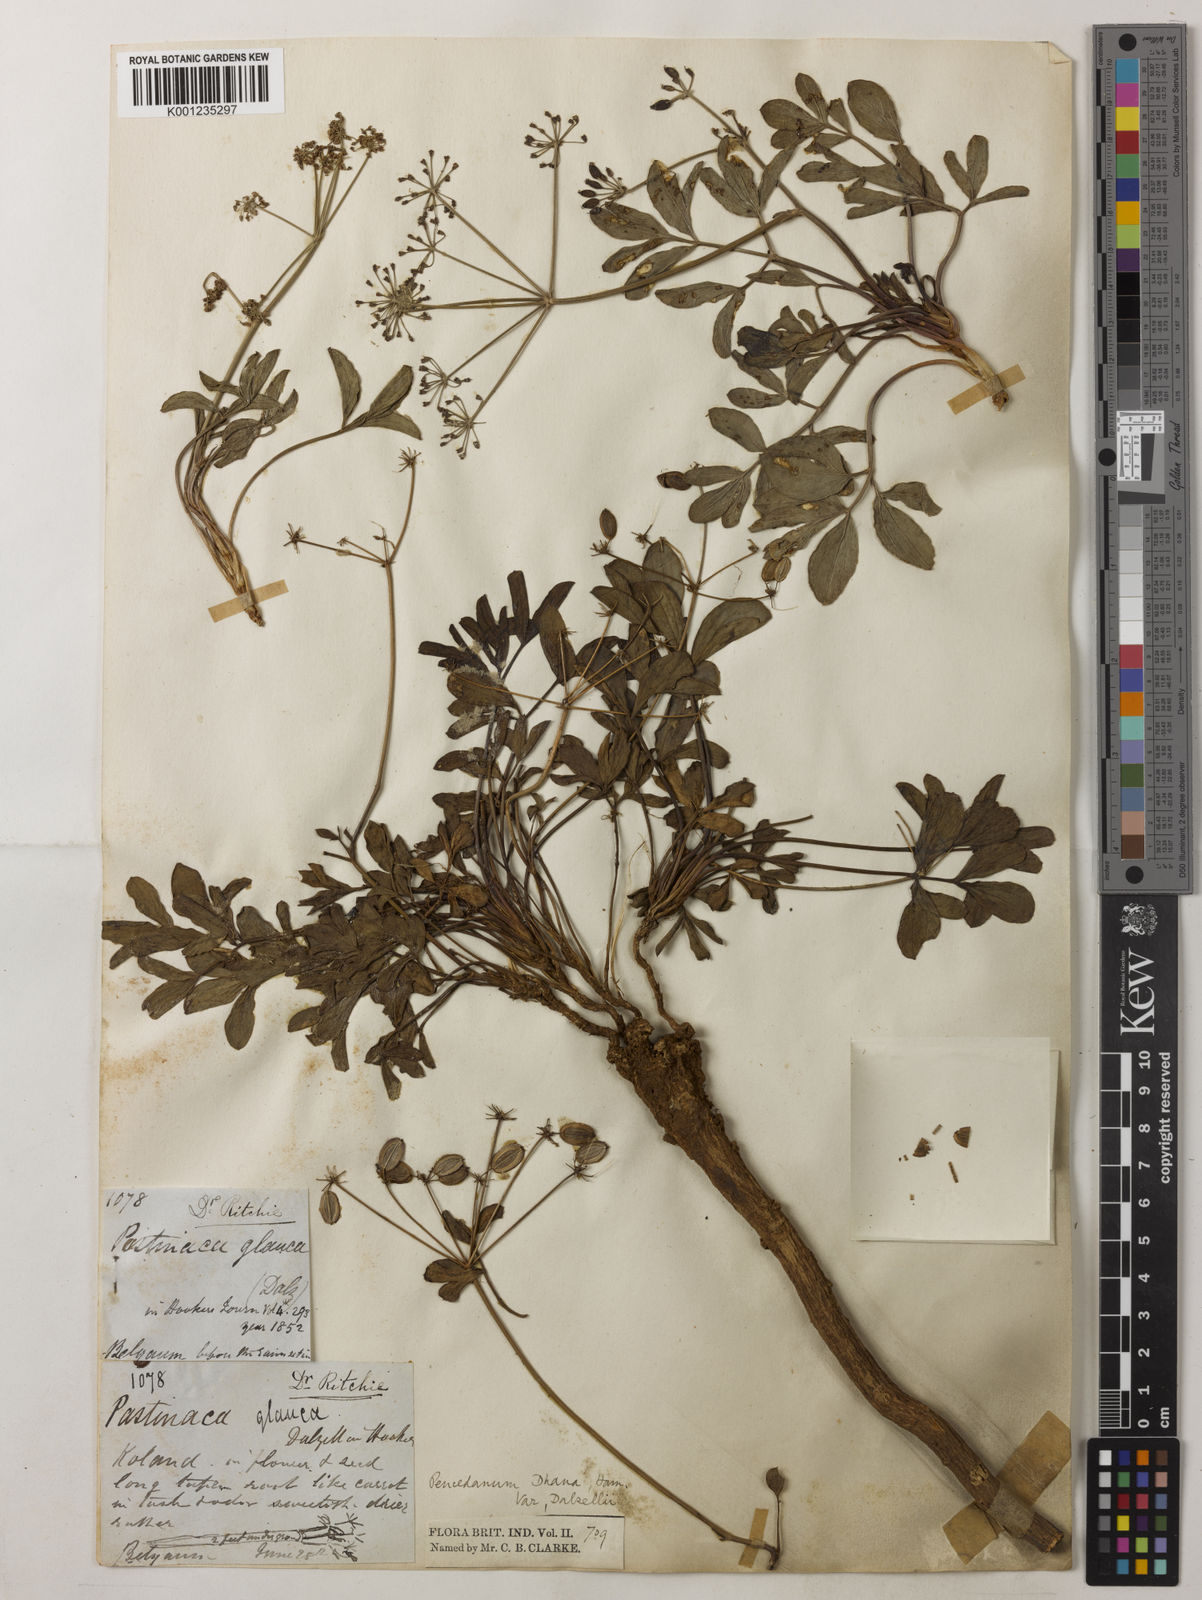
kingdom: Plantae
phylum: Tracheophyta
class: Magnoliopsida
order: Apiales
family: Apiaceae
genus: Peucedanum
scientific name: Peucedanum dhana
